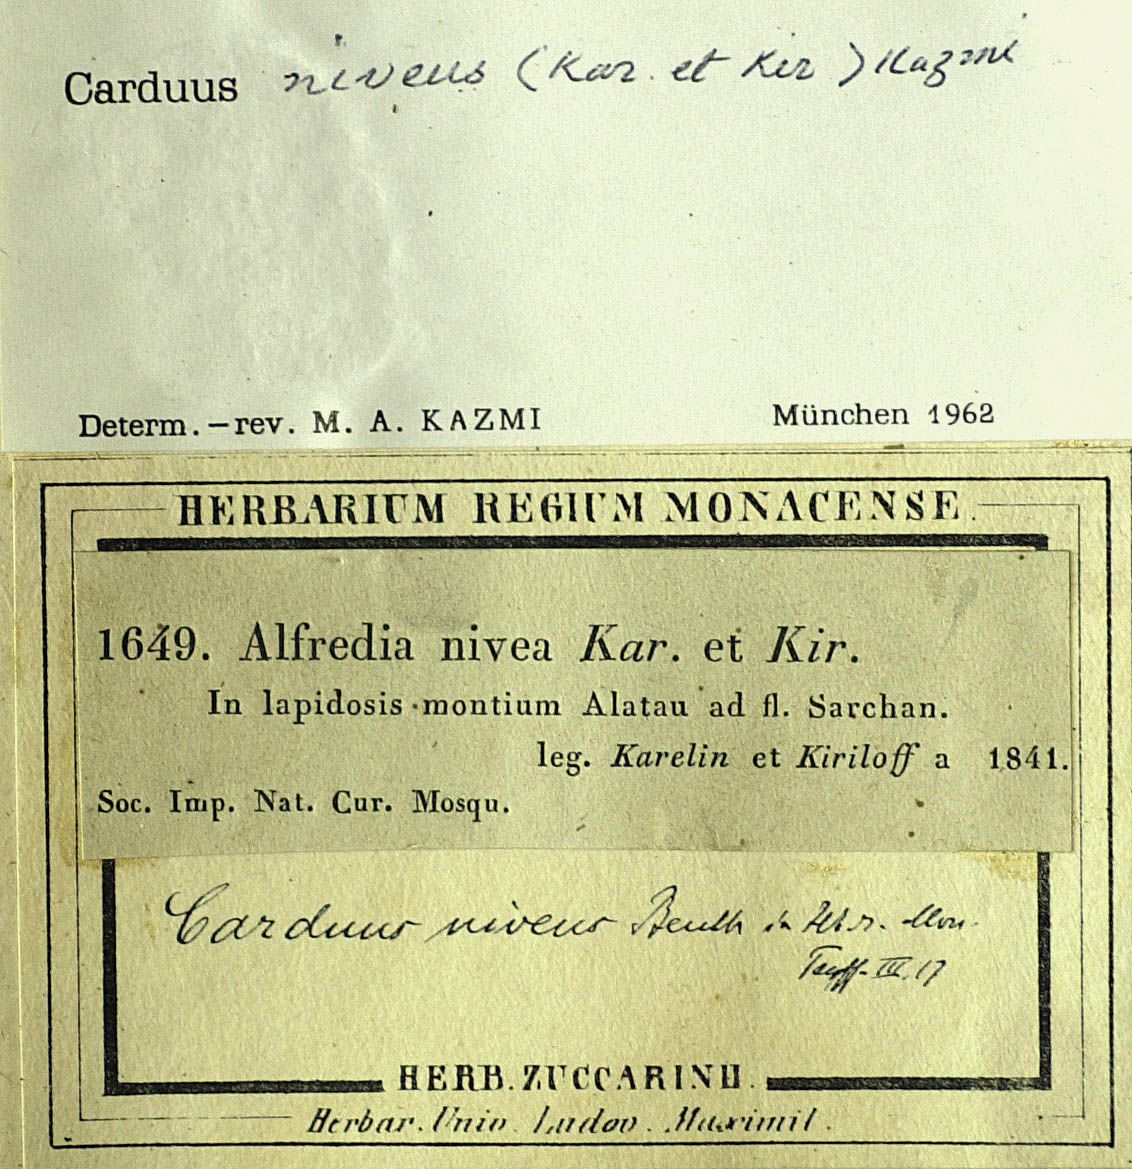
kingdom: Plantae
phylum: Tracheophyta
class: Magnoliopsida
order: Asterales
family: Asteraceae
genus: Alfredia
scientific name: Alfredia nivea
